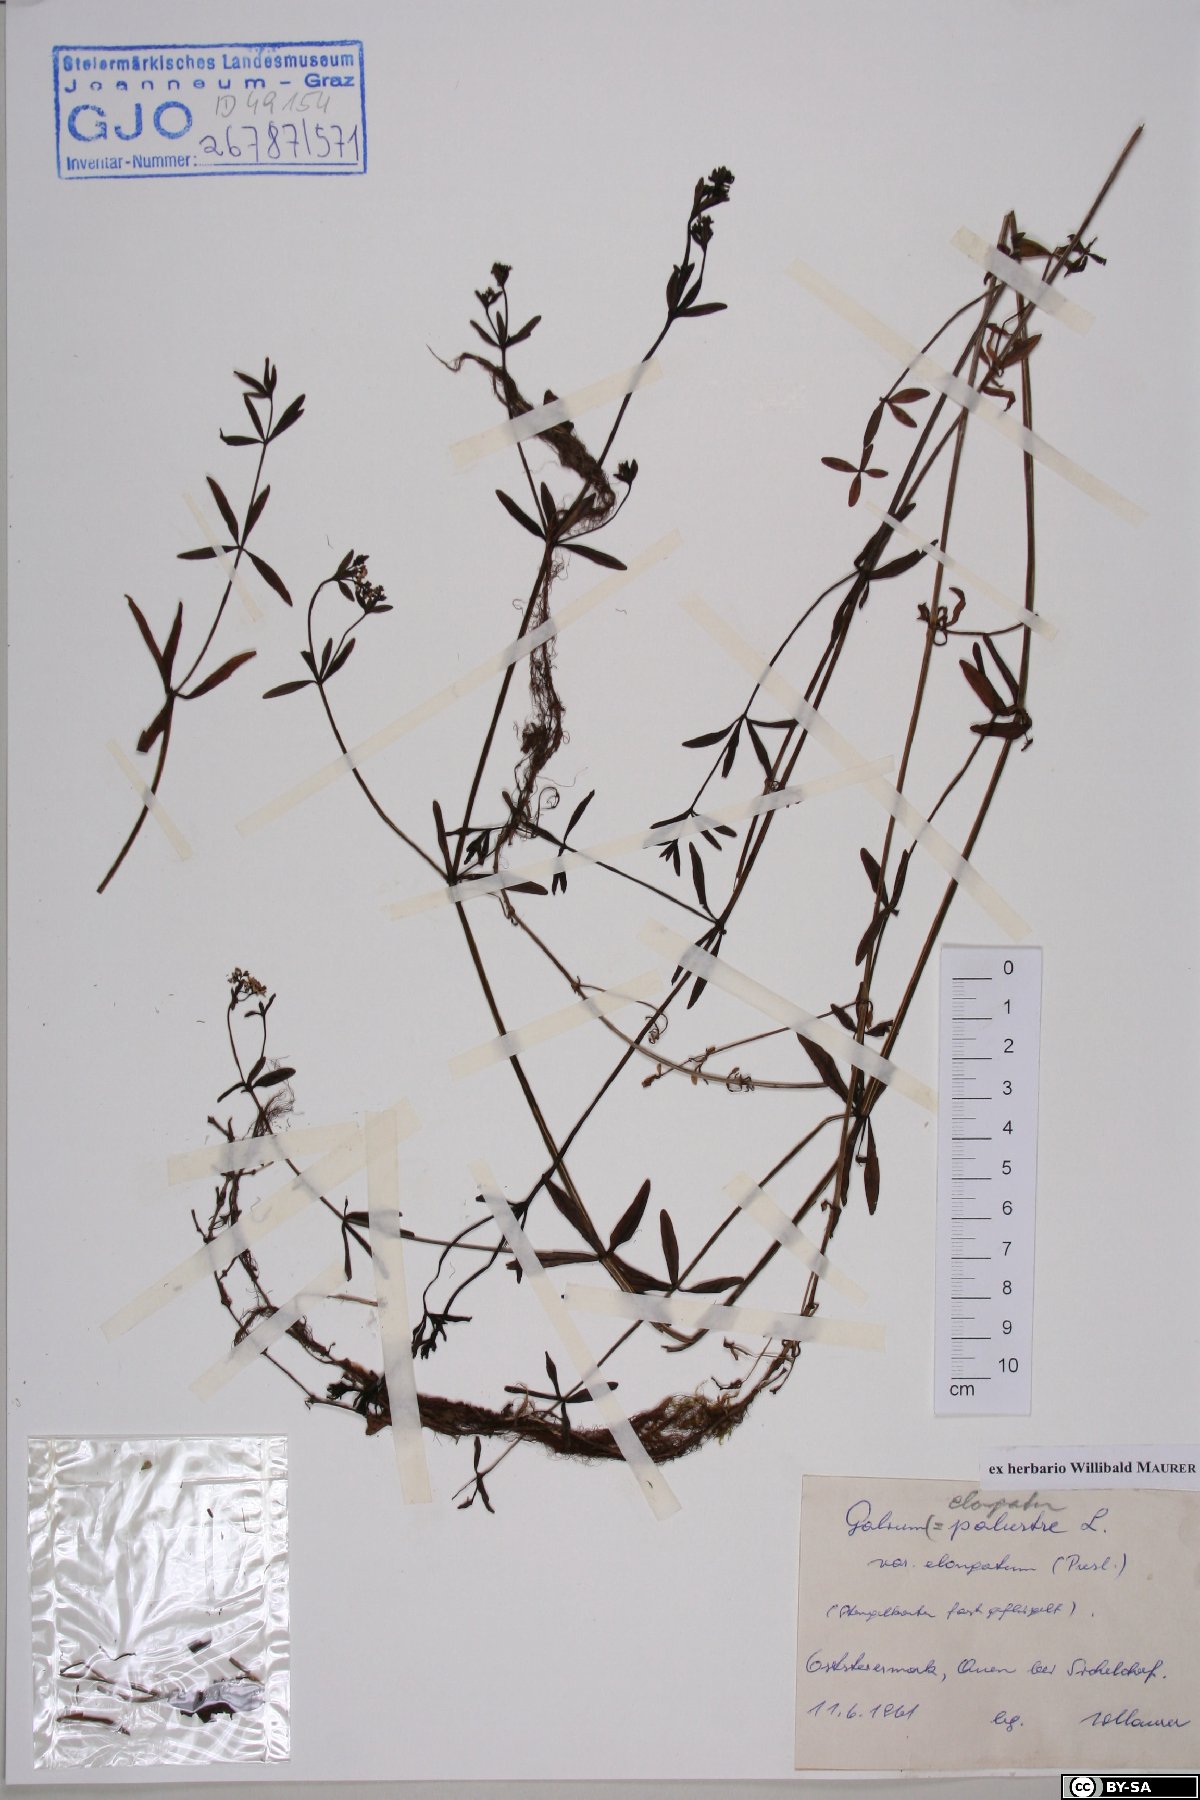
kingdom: Plantae
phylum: Tracheophyta
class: Magnoliopsida
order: Gentianales
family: Rubiaceae
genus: Galium
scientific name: Galium elongatum
